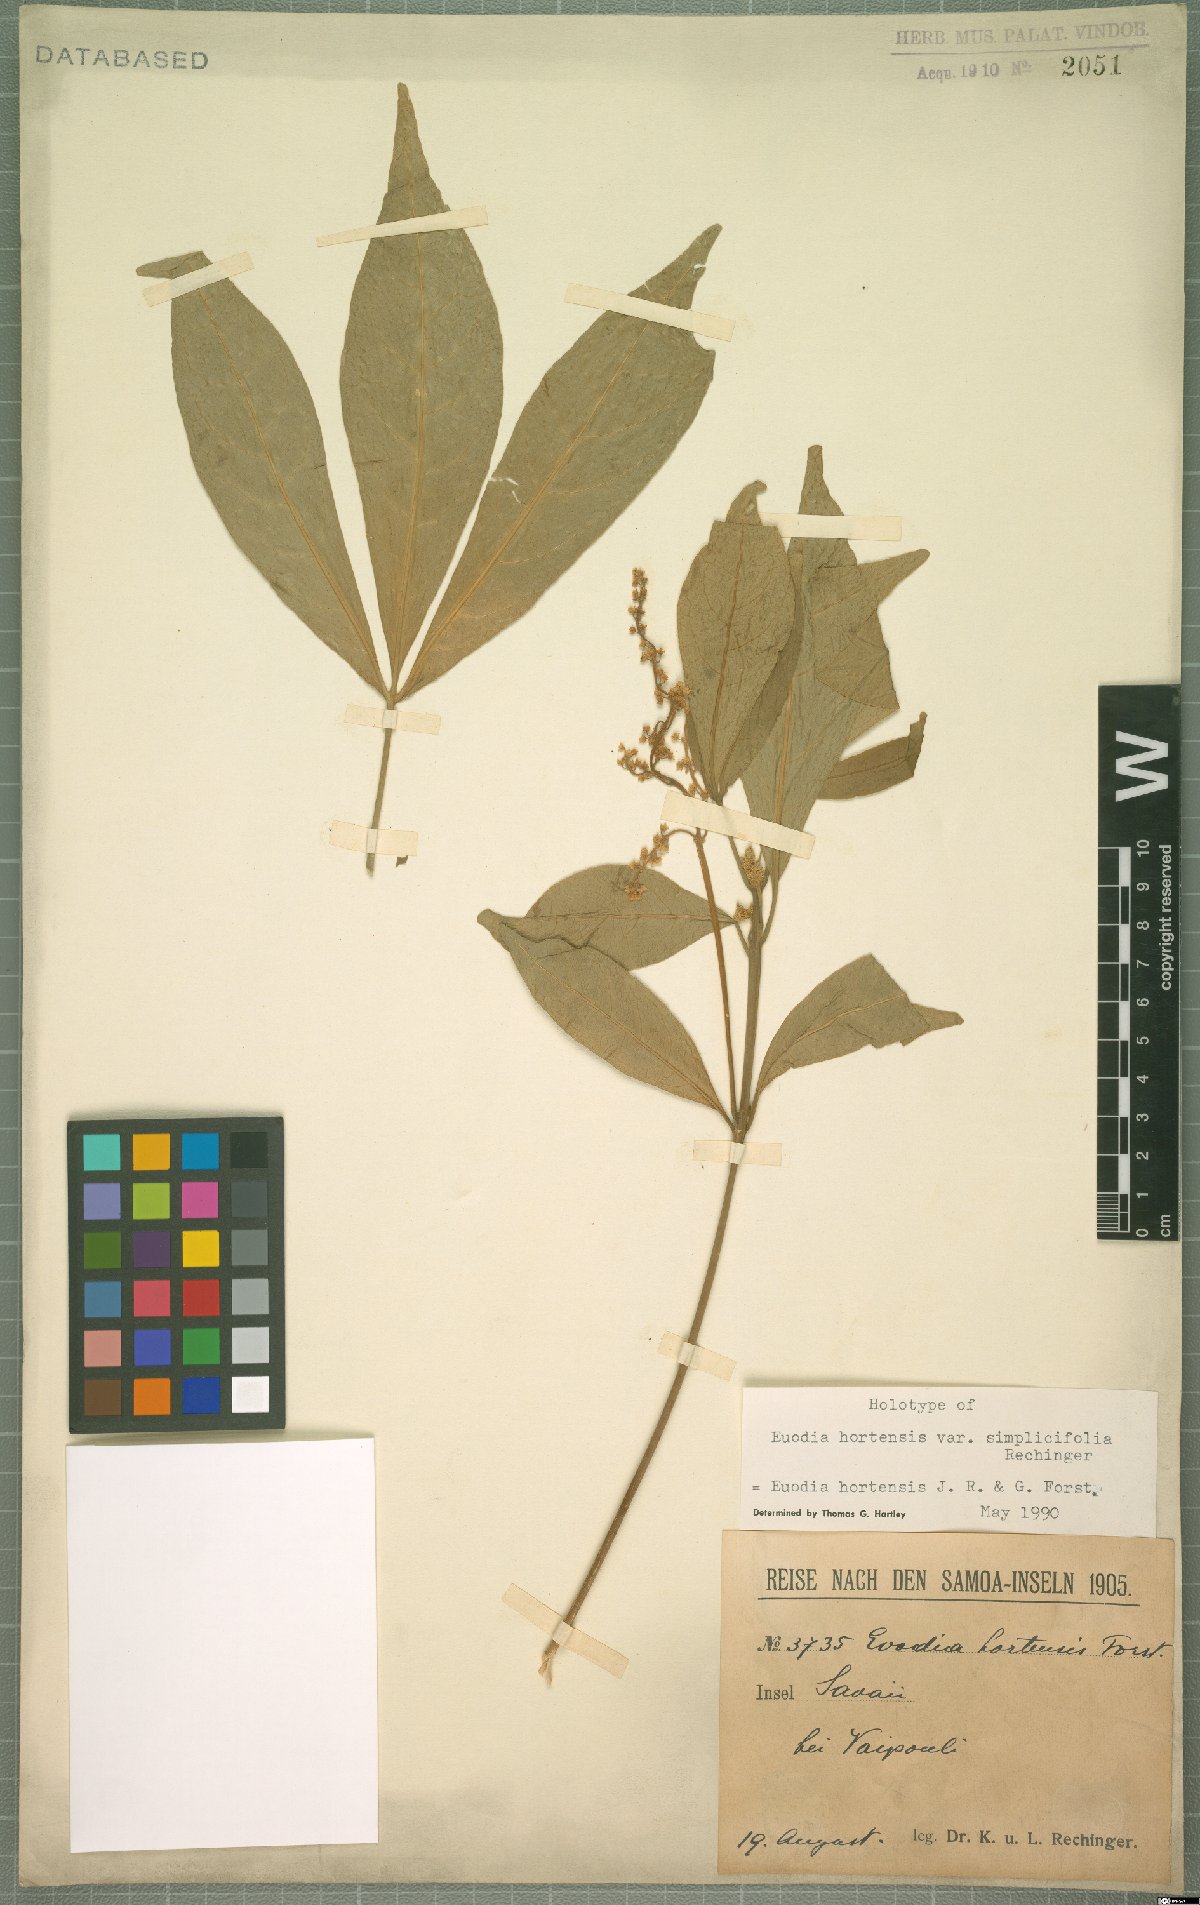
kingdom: Plantae
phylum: Tracheophyta
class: Magnoliopsida
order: Sapindales
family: Rutaceae
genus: Euodia
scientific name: Euodia hortensis
